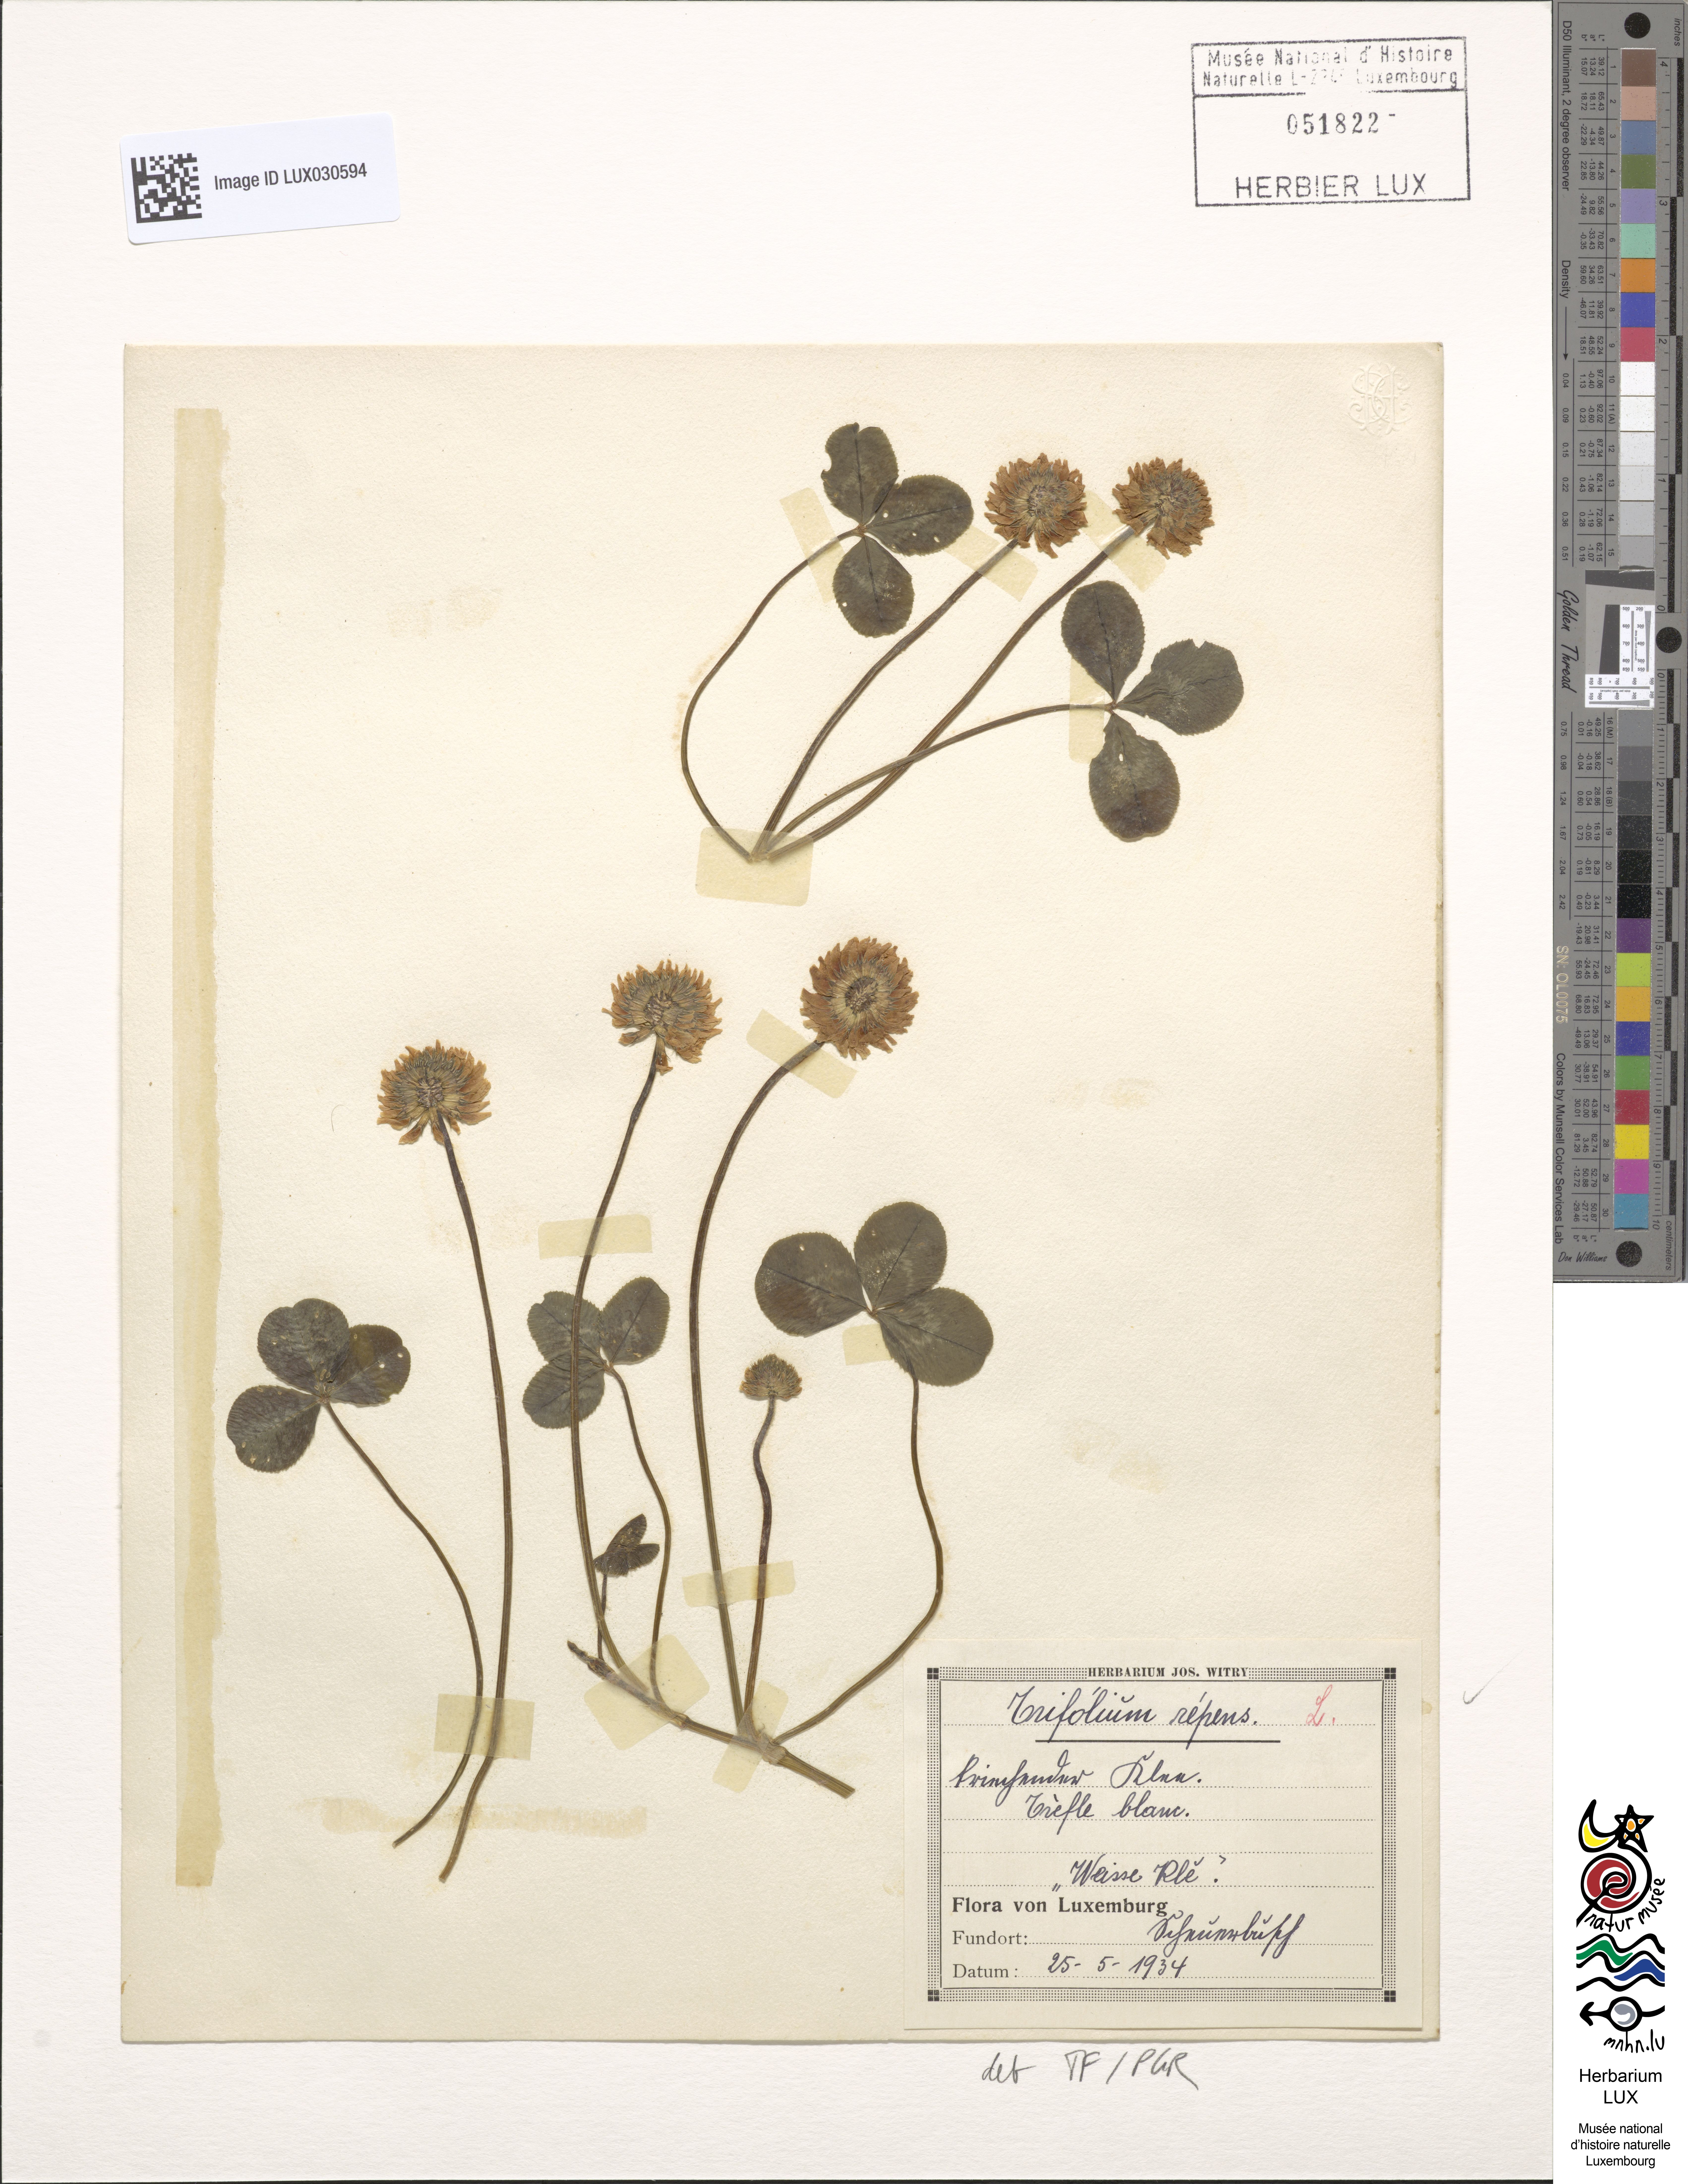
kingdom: Plantae
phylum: Tracheophyta
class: Magnoliopsida
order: Fabales
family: Fabaceae
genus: Trifolium
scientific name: Trifolium repens
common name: White clover
